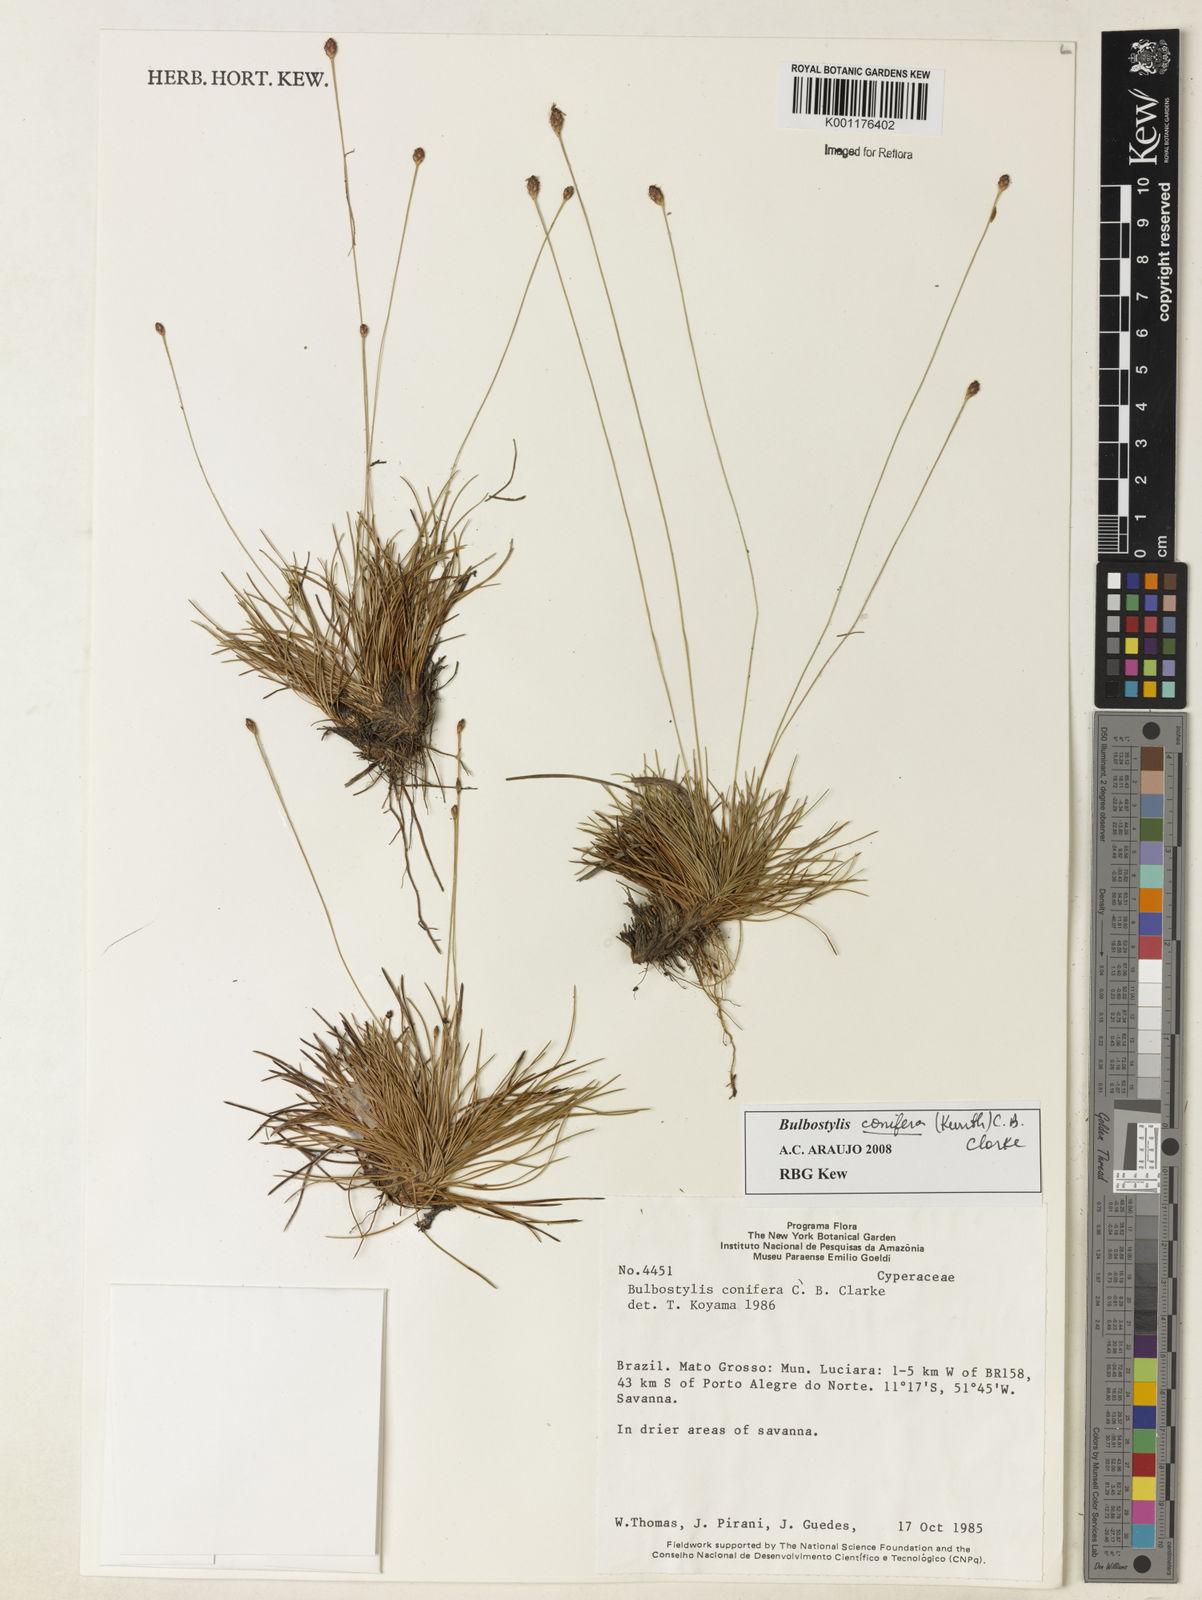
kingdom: Plantae
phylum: Tracheophyta
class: Liliopsida
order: Poales
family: Cyperaceae
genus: Bulbostylis
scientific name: Bulbostylis conifera
